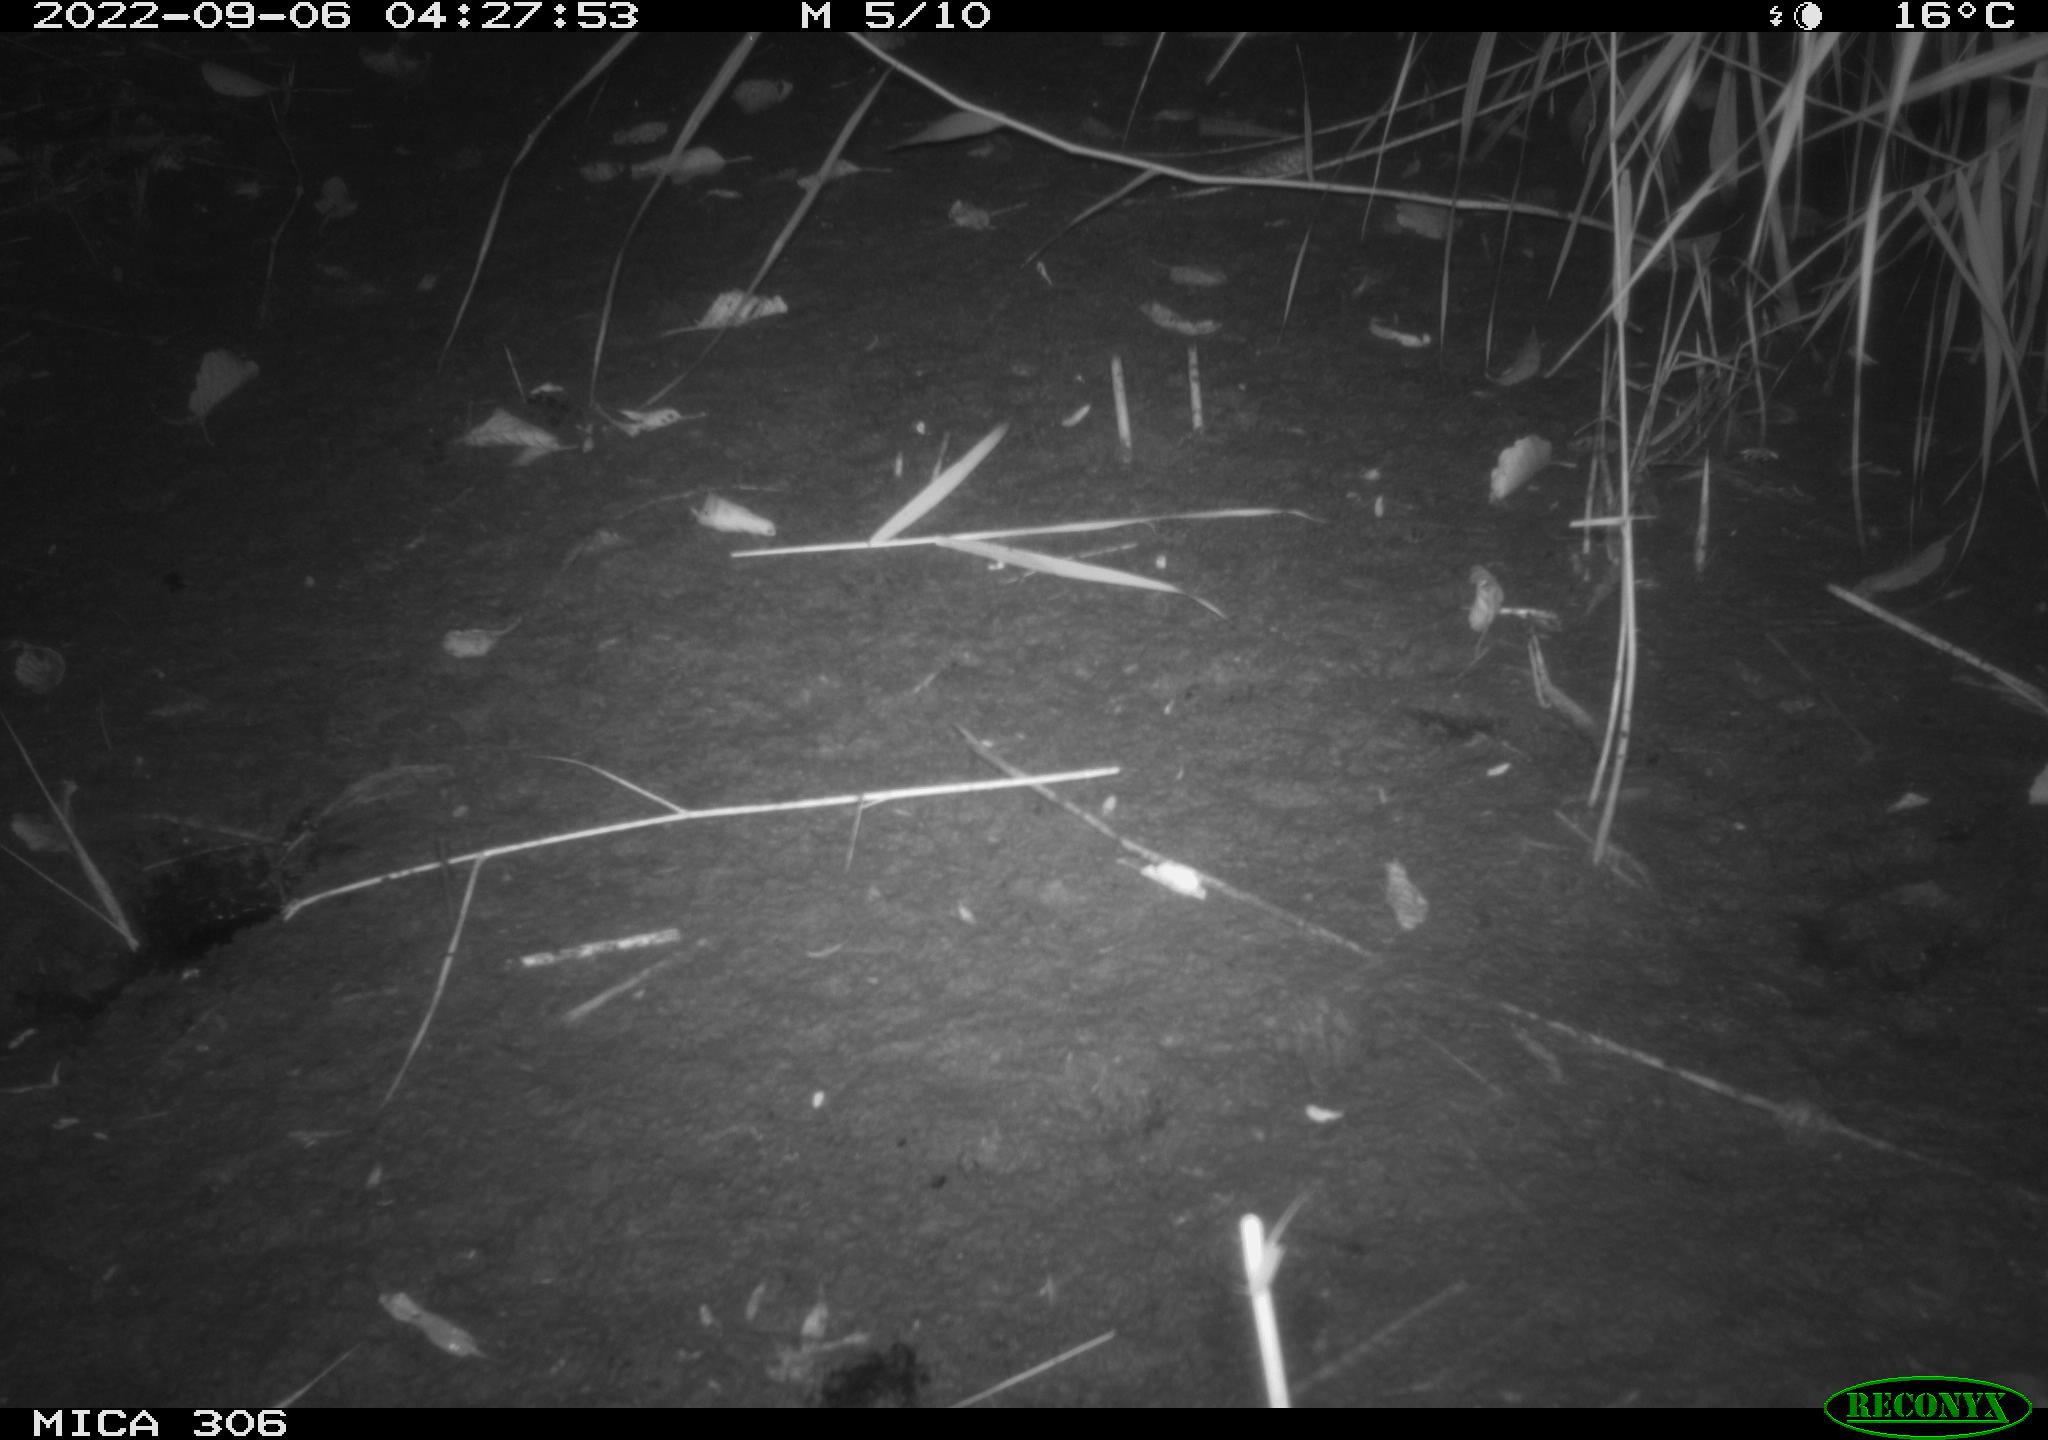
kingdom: Animalia
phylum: Chordata
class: Mammalia
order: Rodentia
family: Muridae
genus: Rattus
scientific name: Rattus norvegicus
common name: Brown rat
